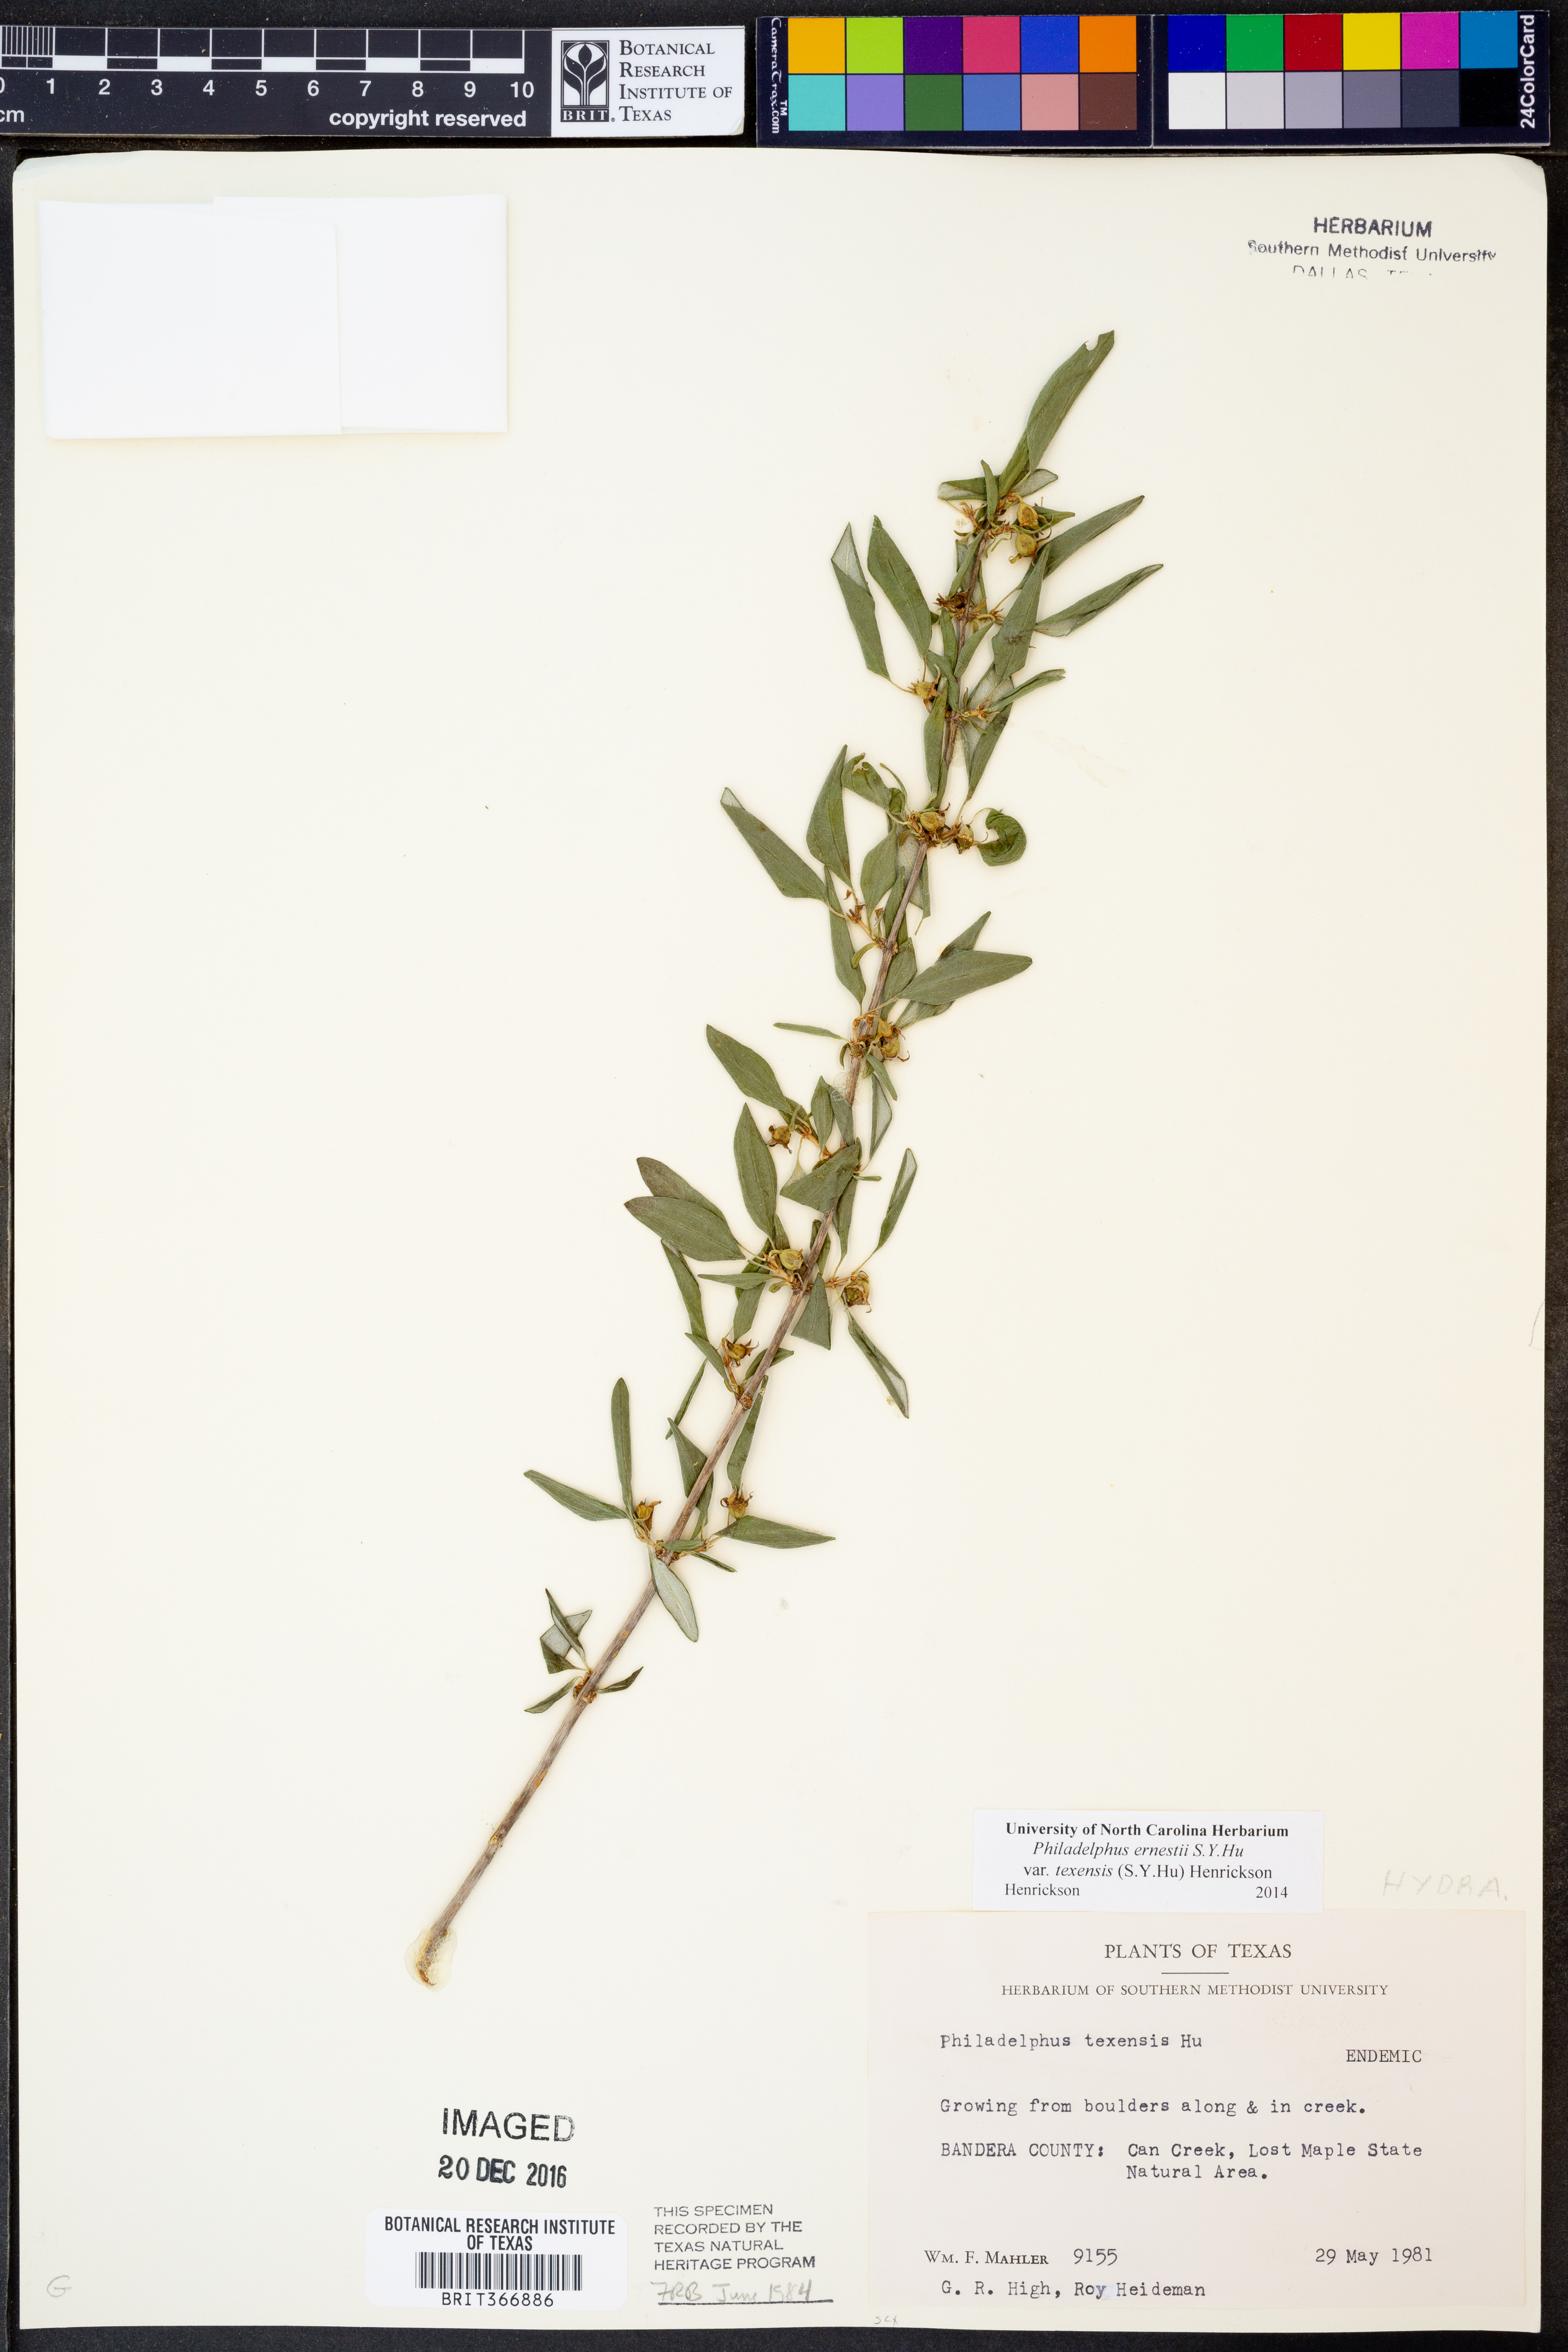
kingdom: Plantae
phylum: Tracheophyta
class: Magnoliopsida
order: Cornales
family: Hydrangeaceae
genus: Philadelphus
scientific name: Philadelphus texensis
